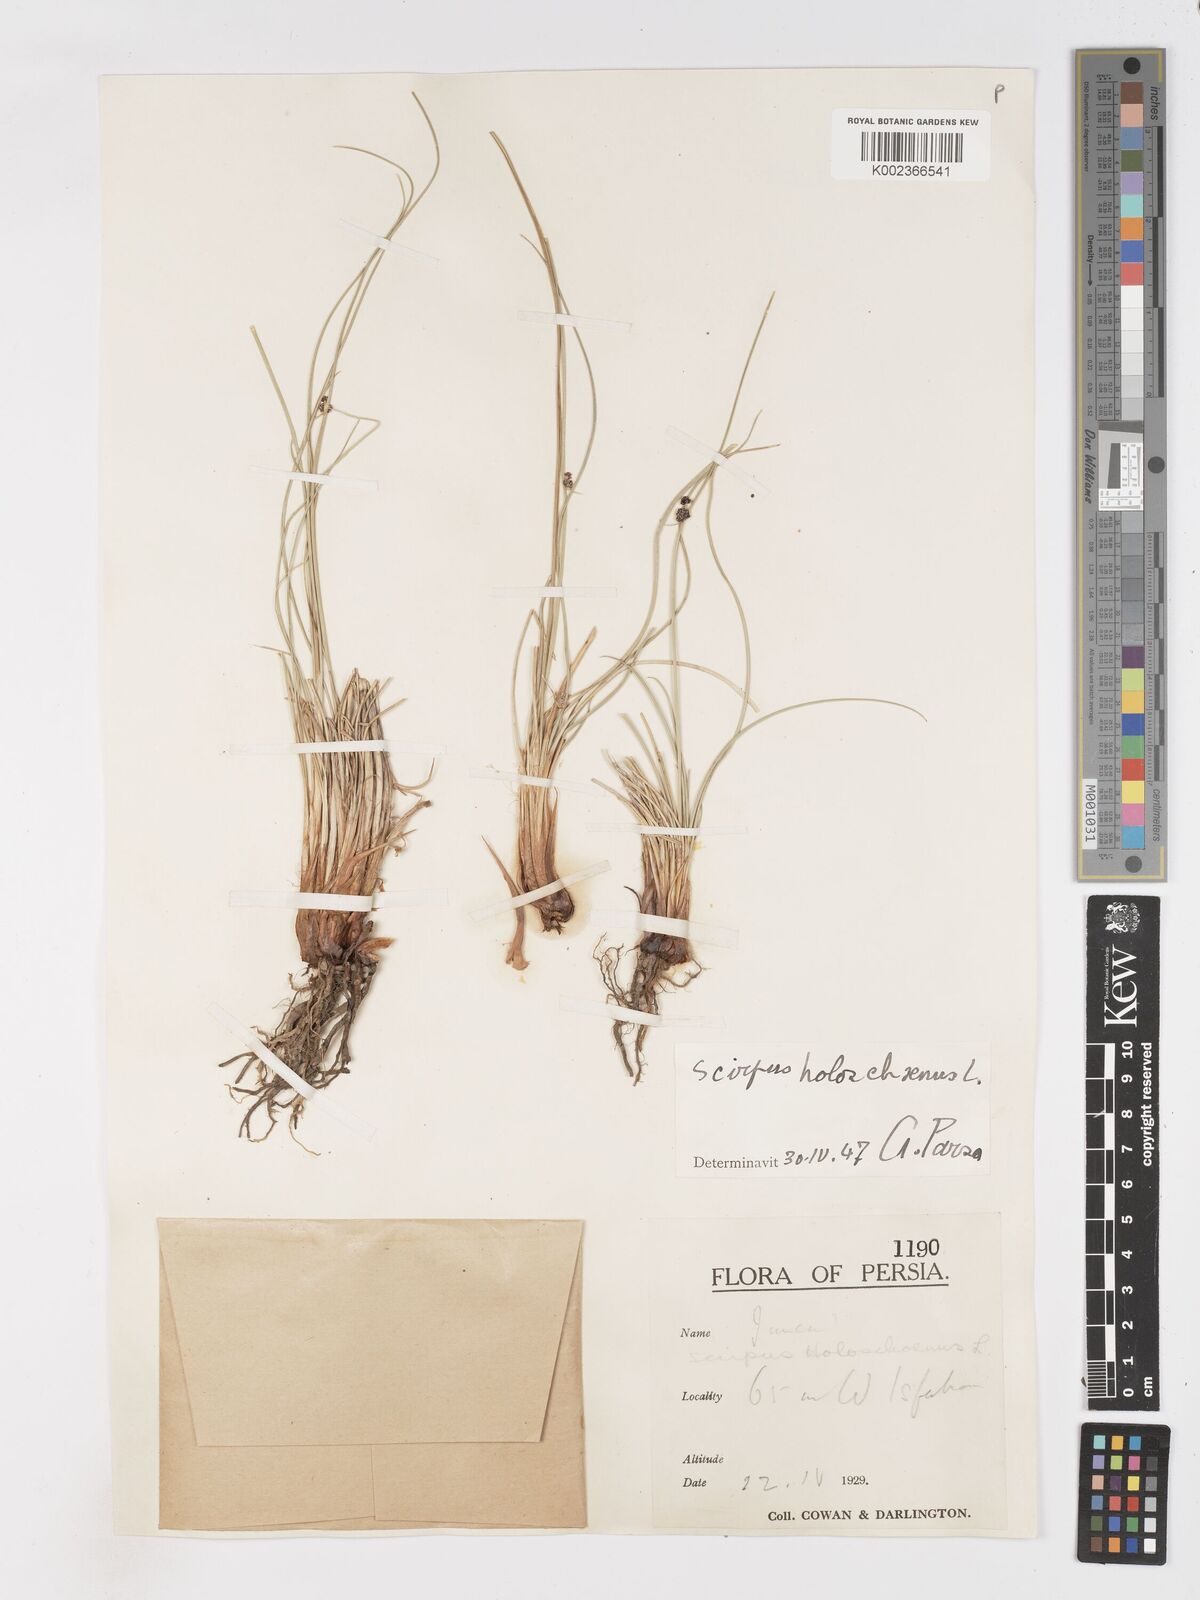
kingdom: Plantae
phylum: Tracheophyta
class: Liliopsida
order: Poales
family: Cyperaceae
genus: Scirpoides
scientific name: Scirpoides holoschoenus
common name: Round-headed club-rush
